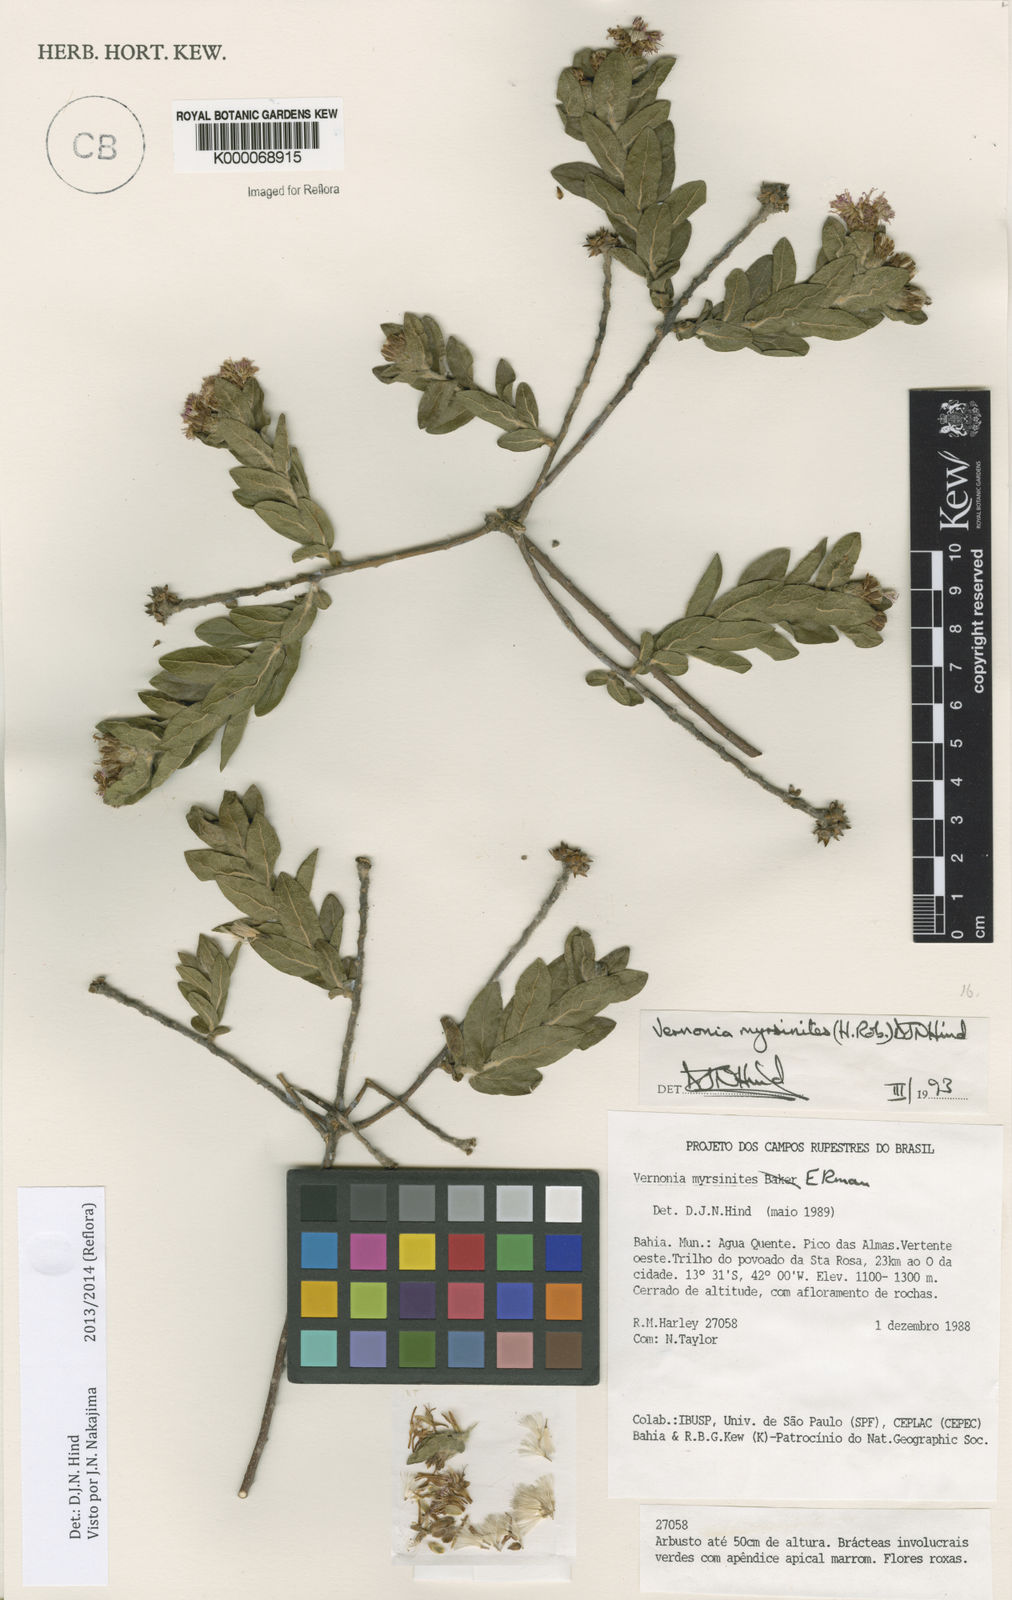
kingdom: Plantae
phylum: Tracheophyta
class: Magnoliopsida
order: Asterales
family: Asteraceae
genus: Lessingianthus
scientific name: Lessingianthus myrsinites
